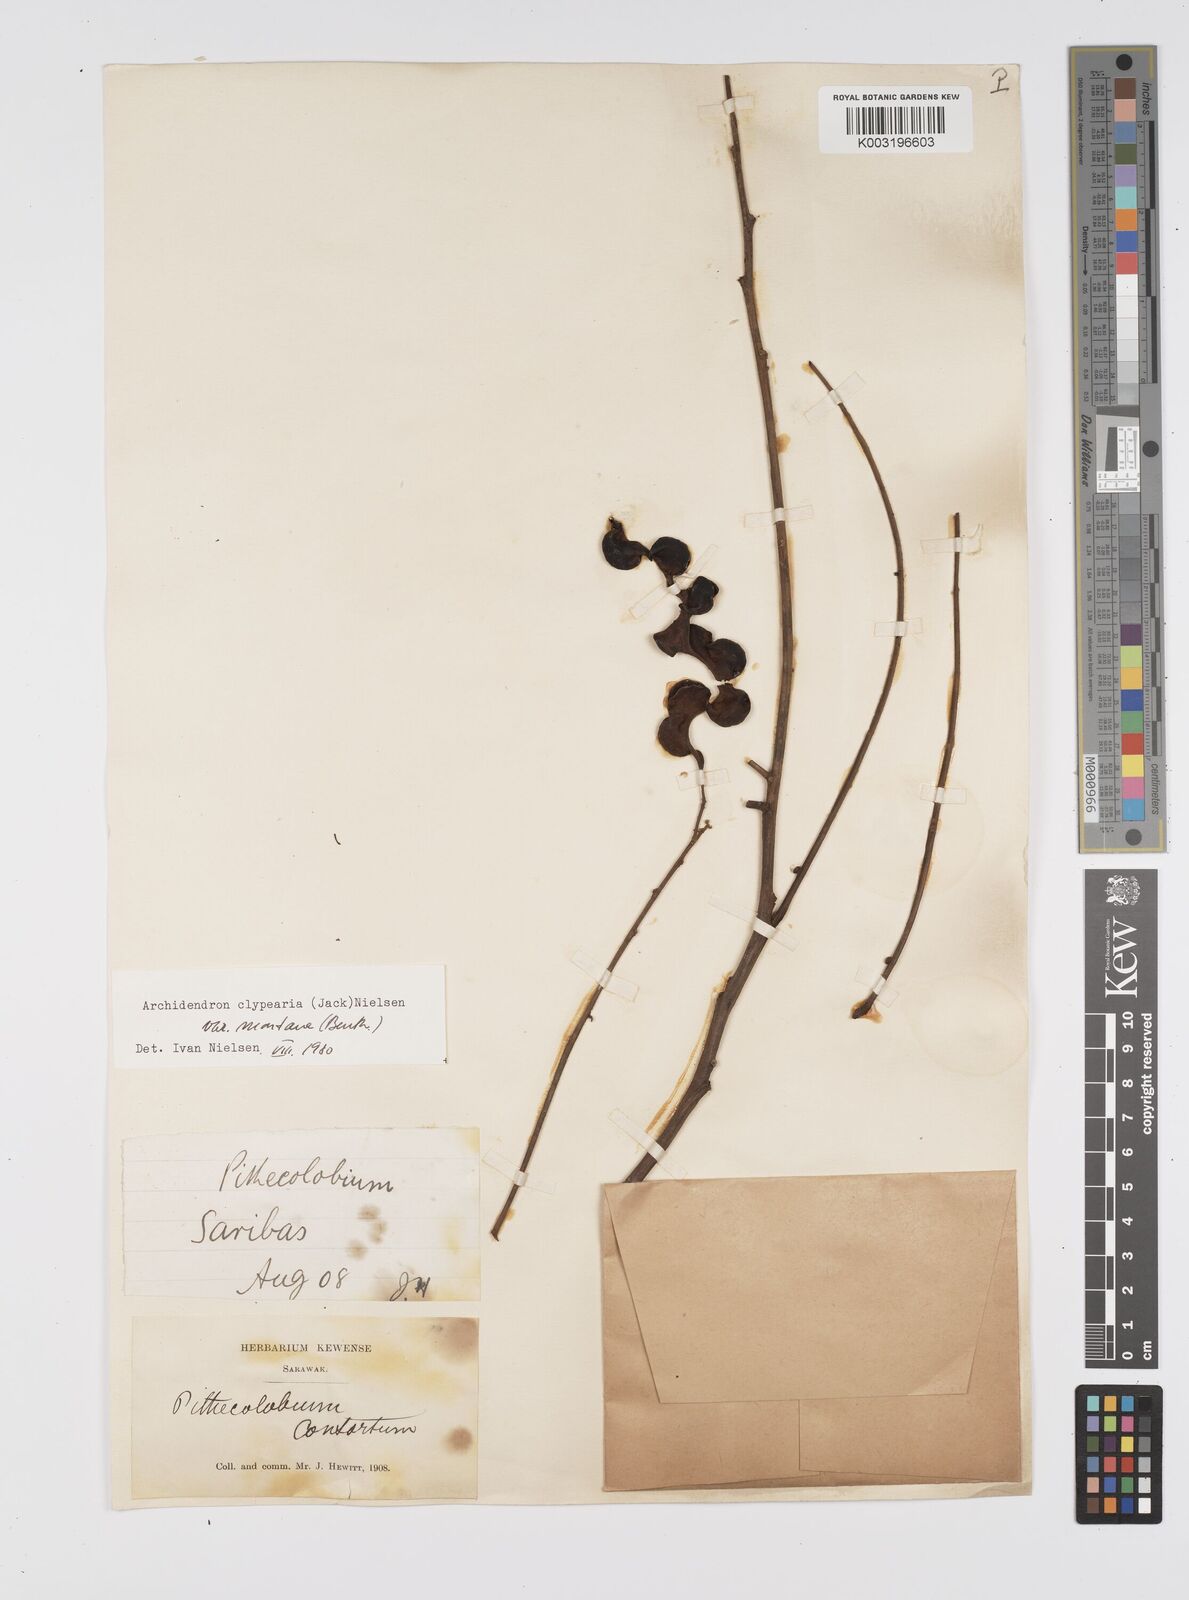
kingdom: Plantae
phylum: Tracheophyta
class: Magnoliopsida
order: Fabales
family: Fabaceae
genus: Archidendron
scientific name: Archidendron clypearia
